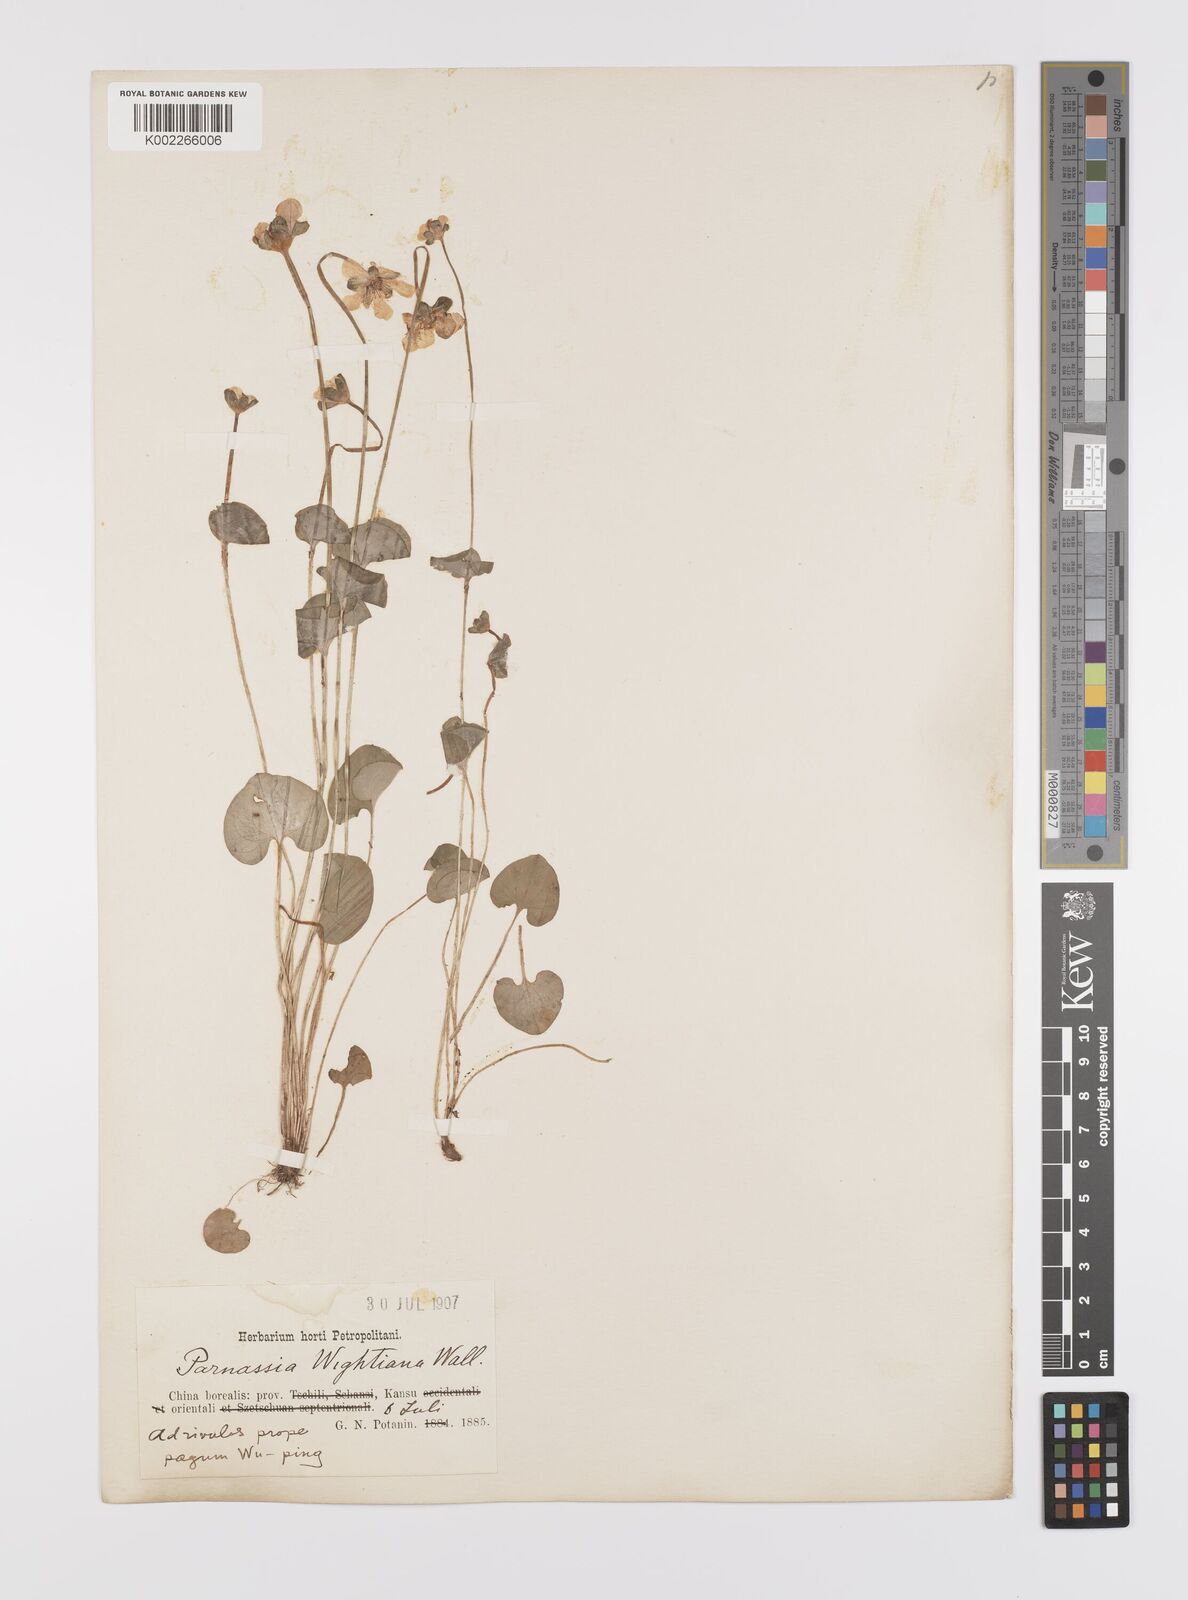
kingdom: Plantae
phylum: Tracheophyta
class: Magnoliopsida
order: Celastrales
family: Parnassiaceae
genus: Parnassia
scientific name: Parnassia wightiana
